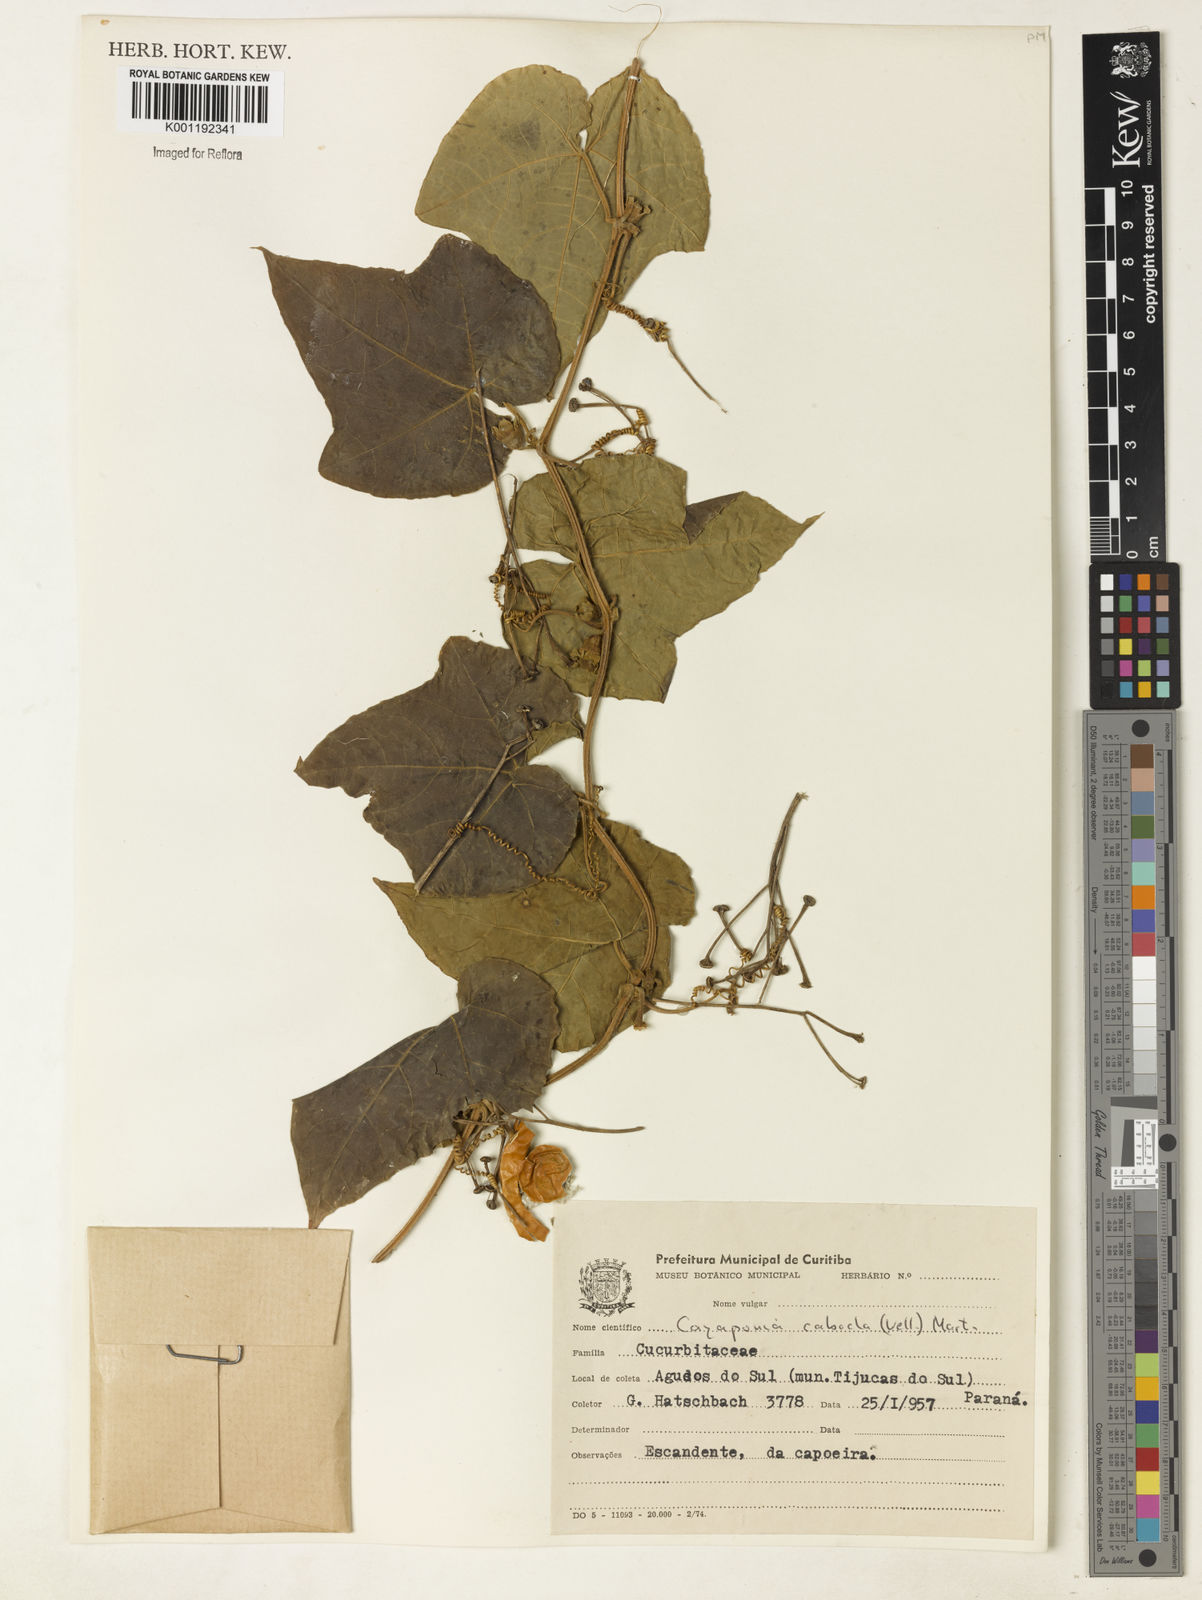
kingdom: Plantae
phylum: Tracheophyta
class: Magnoliopsida
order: Cucurbitales
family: Cucurbitaceae
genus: Cayaponia
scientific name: Cayaponia cabocla
